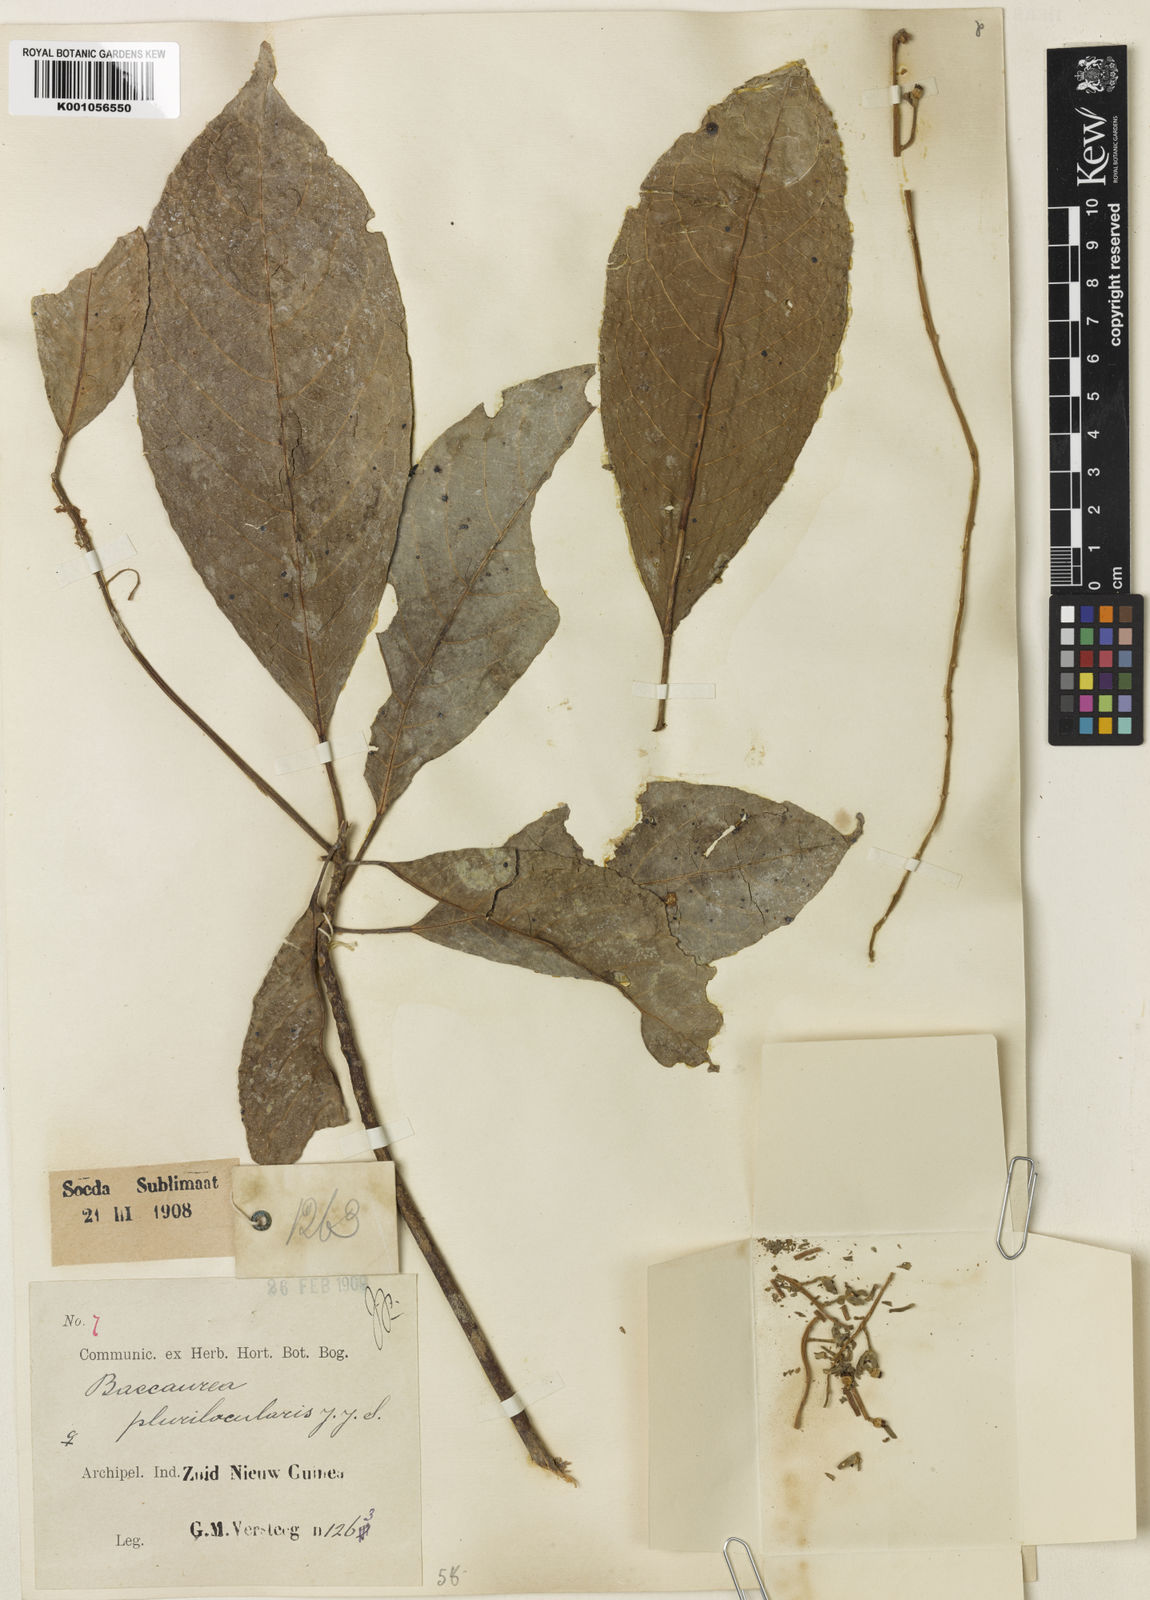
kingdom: Plantae
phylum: Tracheophyta
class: Magnoliopsida
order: Malpighiales
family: Phyllanthaceae
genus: Baccaurea
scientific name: Baccaurea papuana
